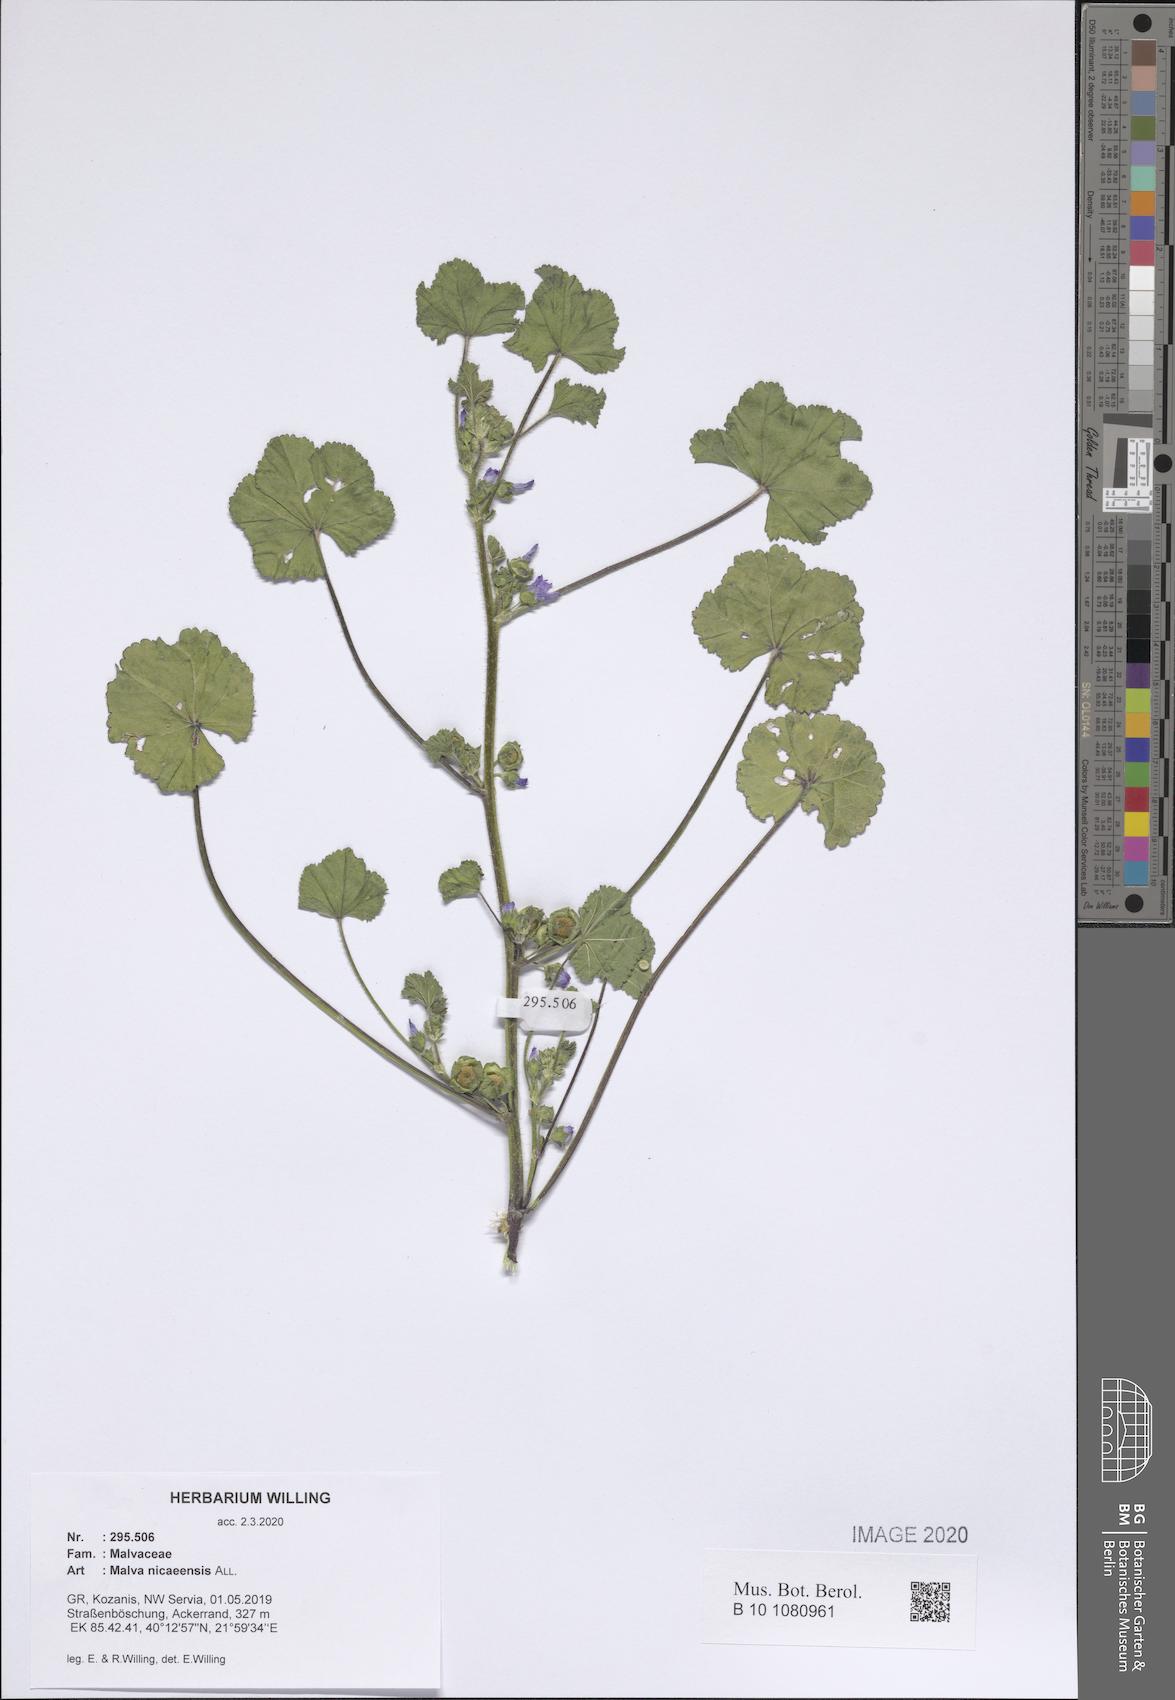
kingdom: Plantae
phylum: Tracheophyta
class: Magnoliopsida
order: Malvales
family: Malvaceae
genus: Malva
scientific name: Malva nicaeensis
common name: French mallow
